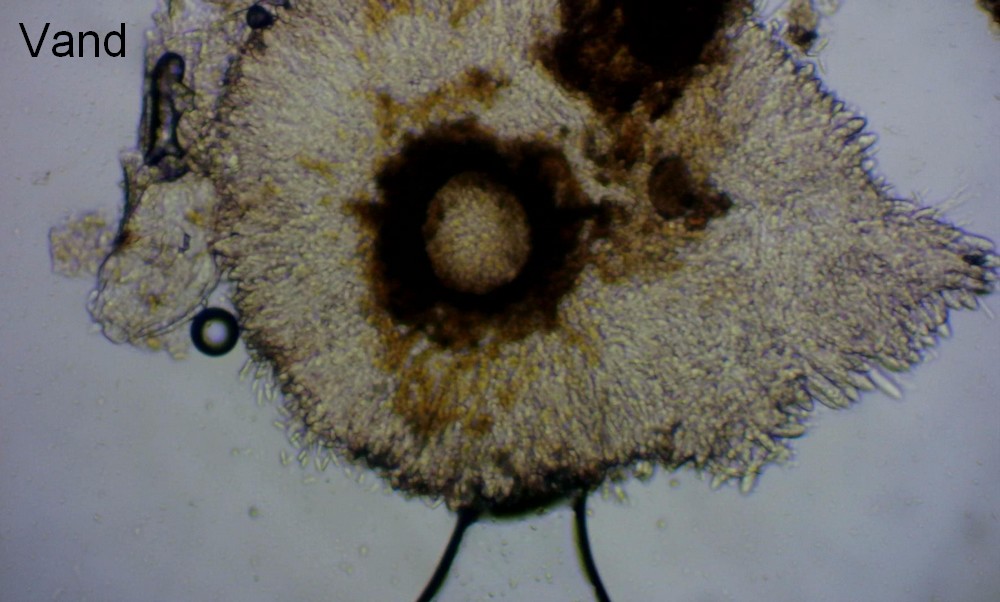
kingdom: Fungi
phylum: Ascomycota
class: Leotiomycetes
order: Helotiales
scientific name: Helotiales
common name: stilkskiveordenen
